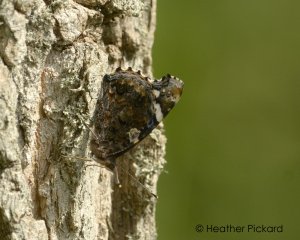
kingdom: Animalia
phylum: Arthropoda
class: Insecta
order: Lepidoptera
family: Nymphalidae
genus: Vanessa
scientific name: Vanessa atalanta
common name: Red Admiral
